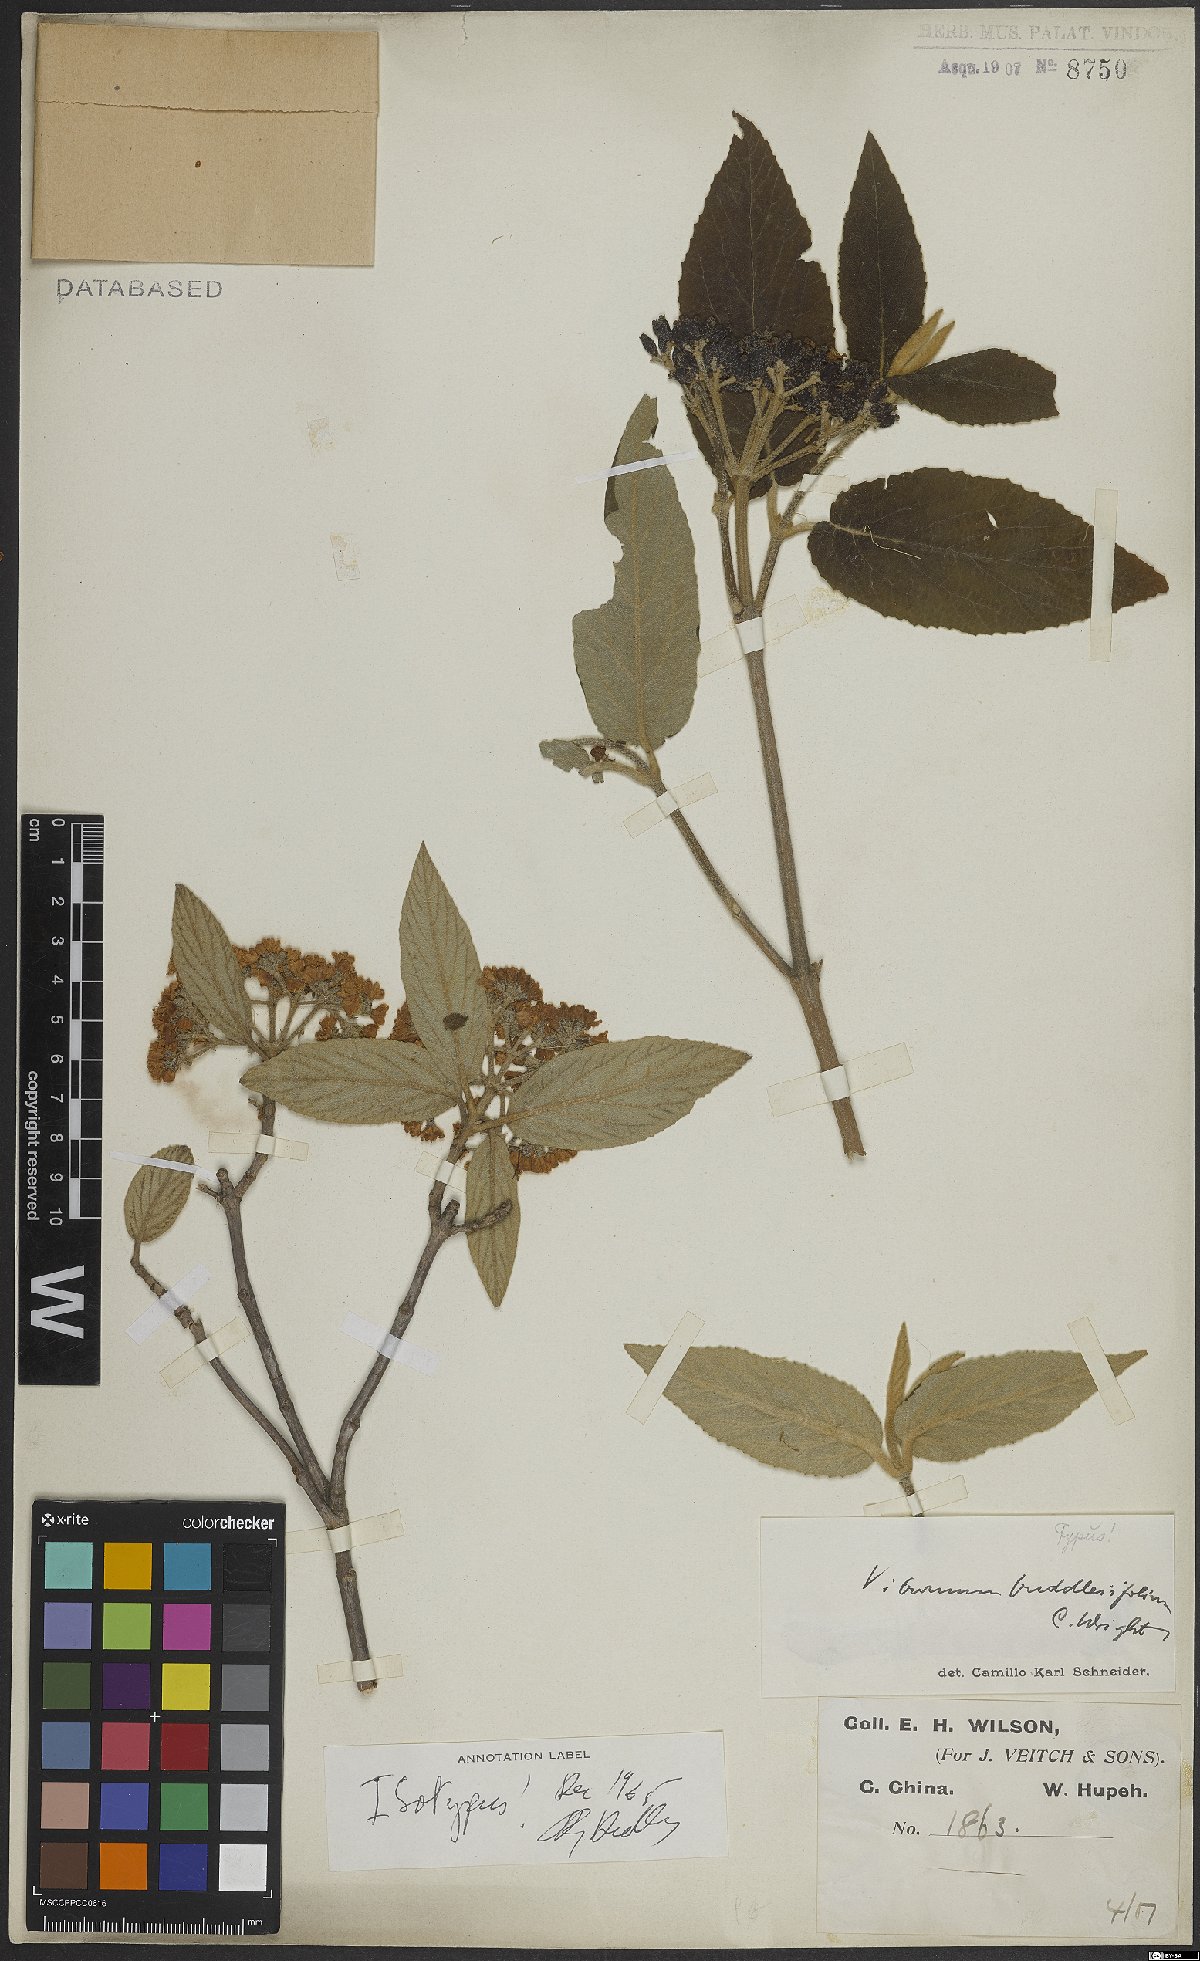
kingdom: Plantae
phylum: Tracheophyta
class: Magnoliopsida
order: Dipsacales
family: Viburnaceae
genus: Viburnum
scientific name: Viburnum buddleifolium
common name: Buddlejaleaf viburnum
